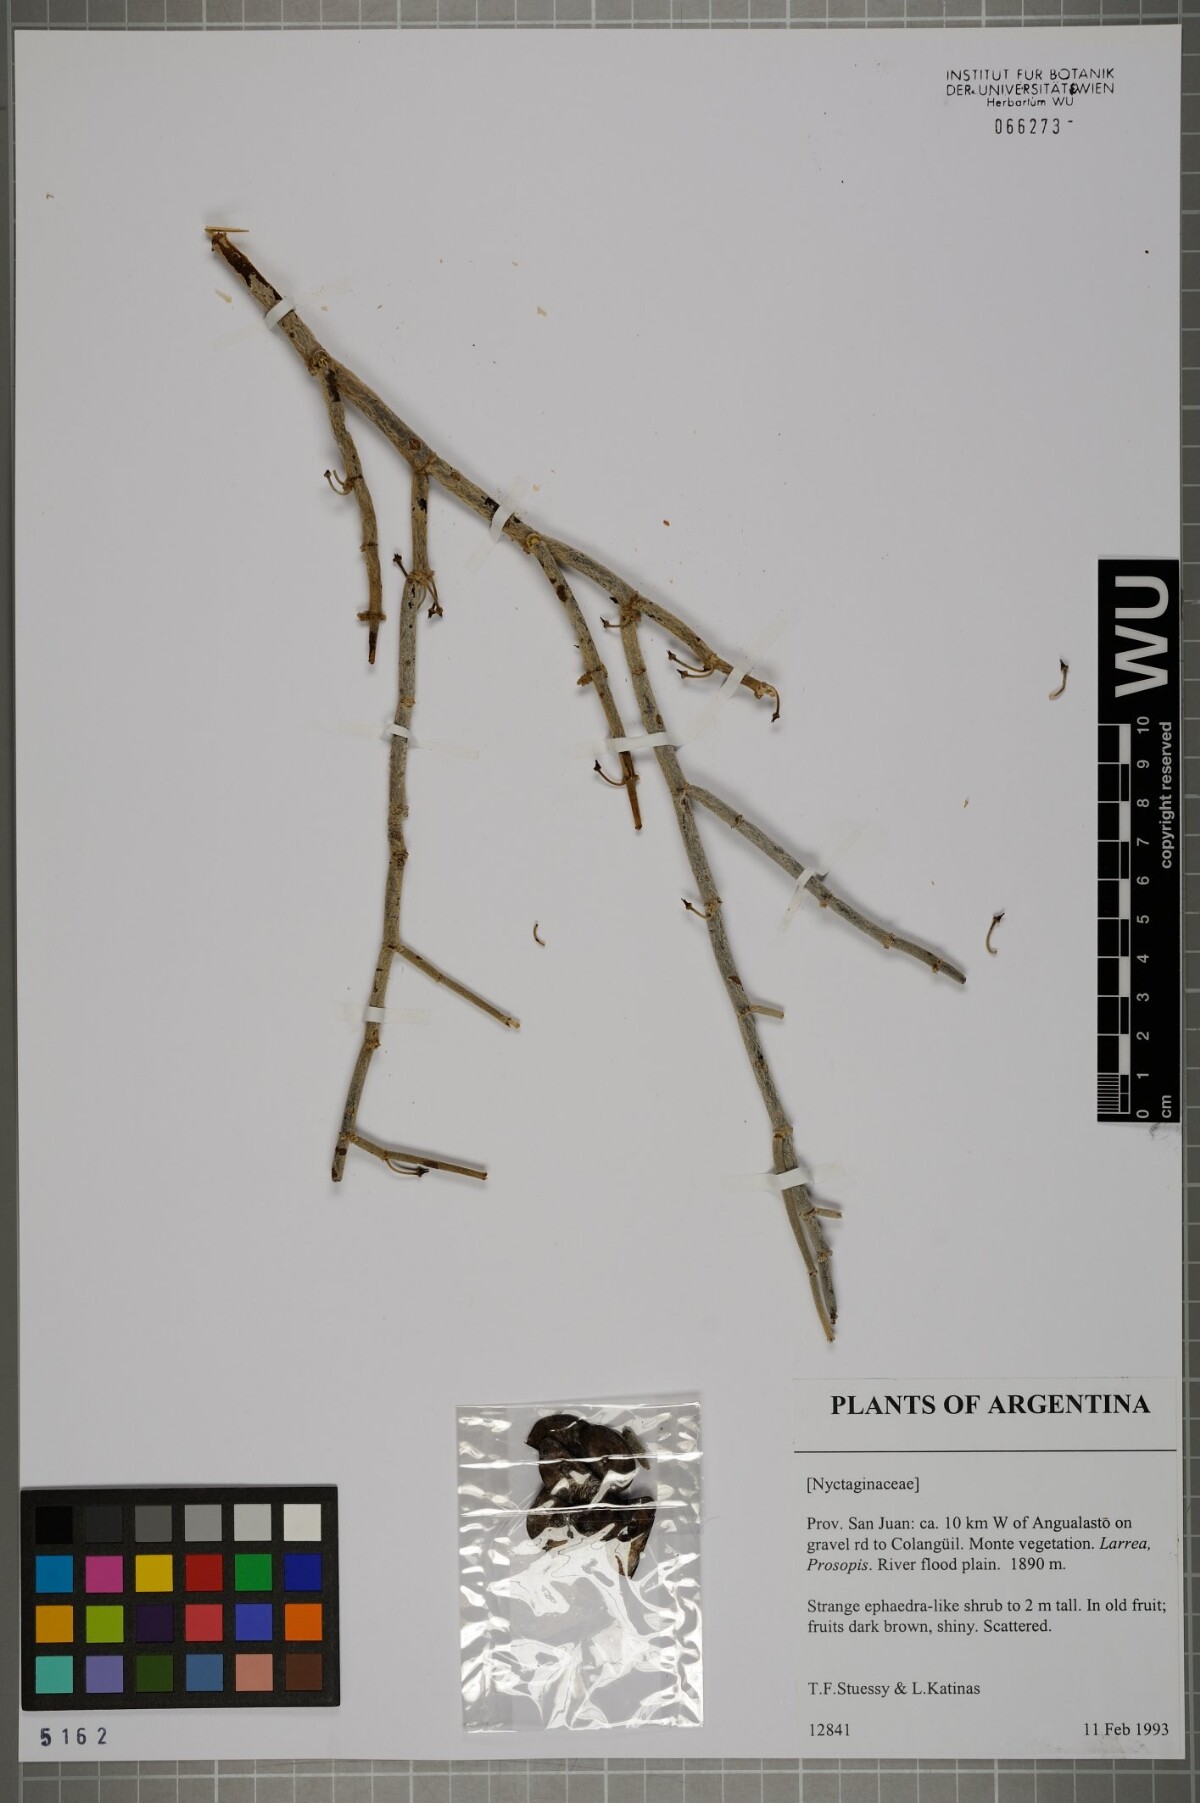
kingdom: Plantae
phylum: Tracheophyta
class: Magnoliopsida
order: Caryophyllales
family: Nyctaginaceae
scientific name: Nyctaginaceae
